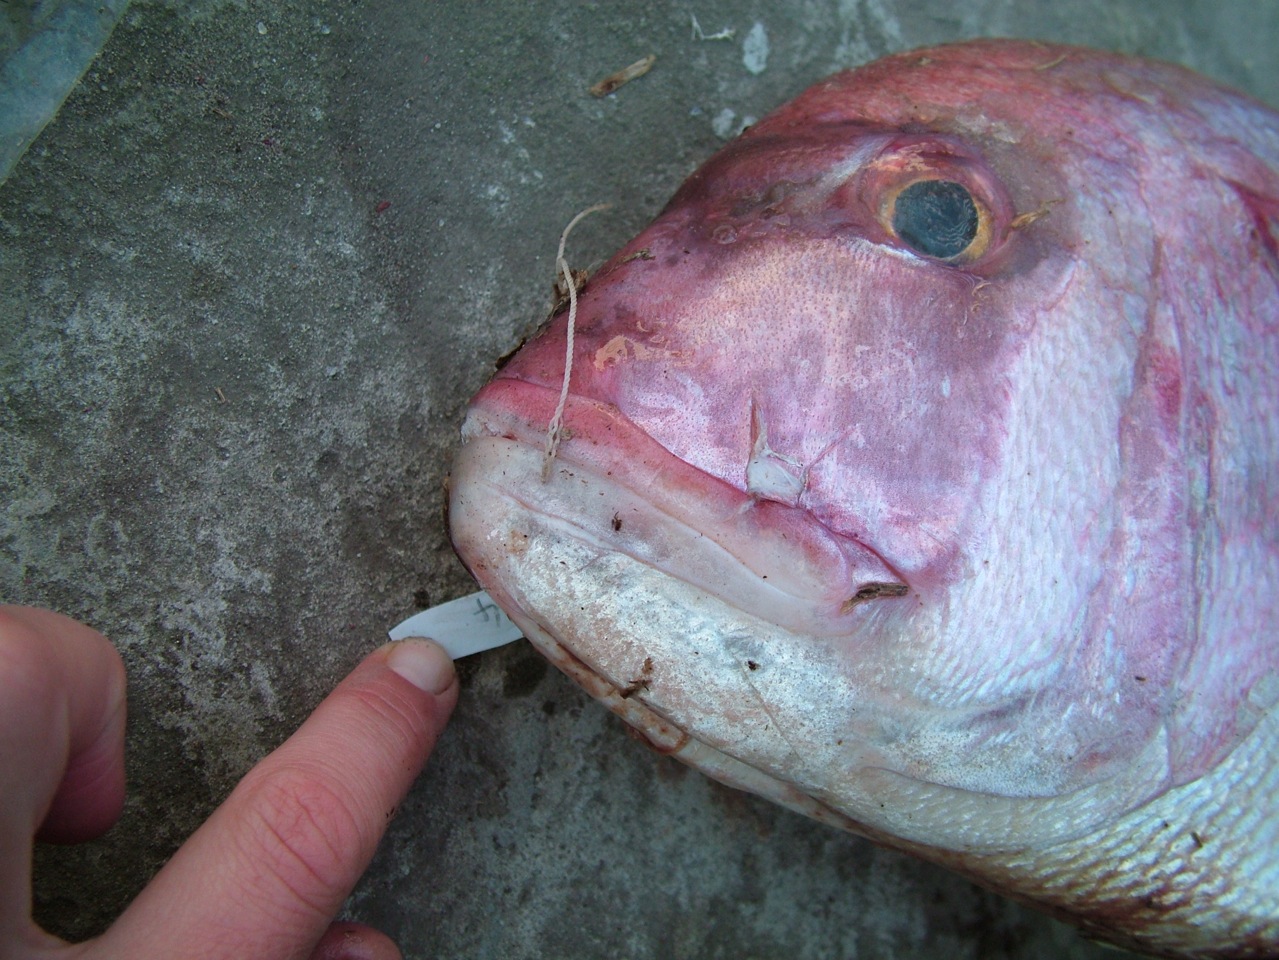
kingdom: Animalia
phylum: Chordata
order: Perciformes
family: Sparidae
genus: Argyrops
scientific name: Argyrops spinifer
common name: King soldier bream
